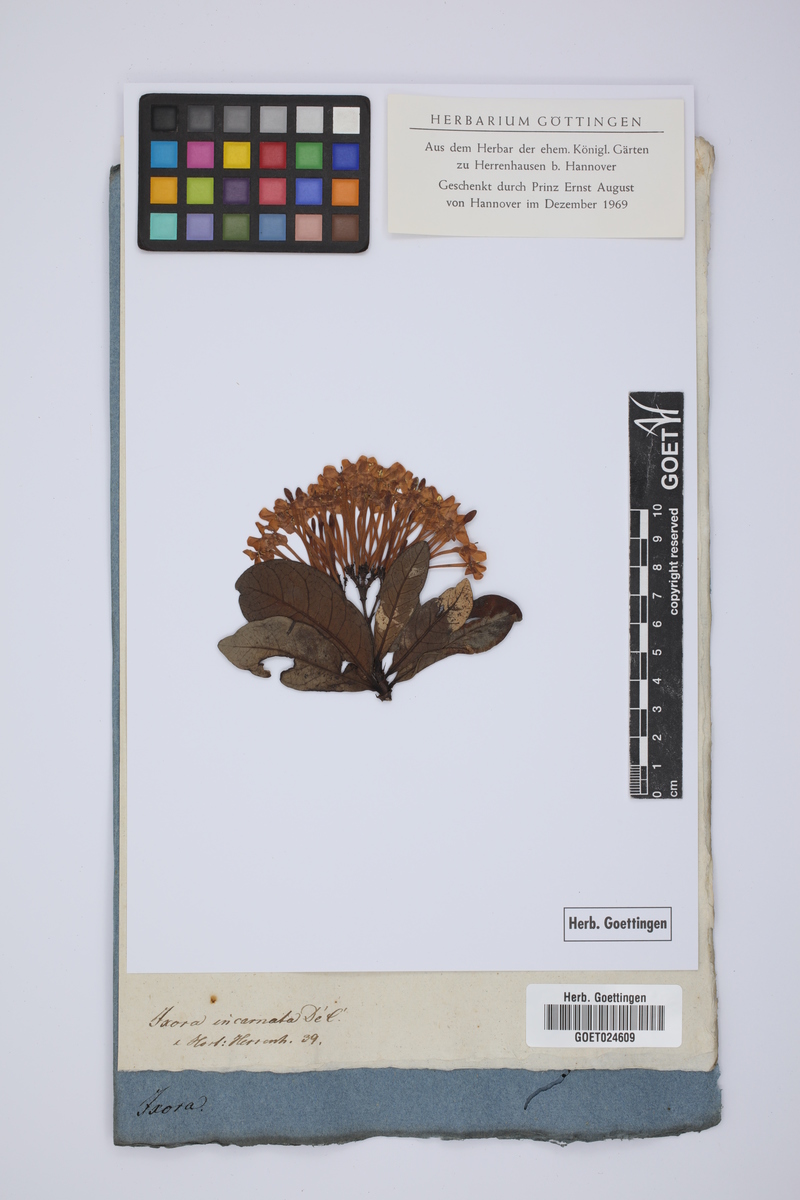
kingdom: Plantae
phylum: Tracheophyta
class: Magnoliopsida
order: Gentianales
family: Rubiaceae
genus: Ixora
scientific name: Ixora coccinea
